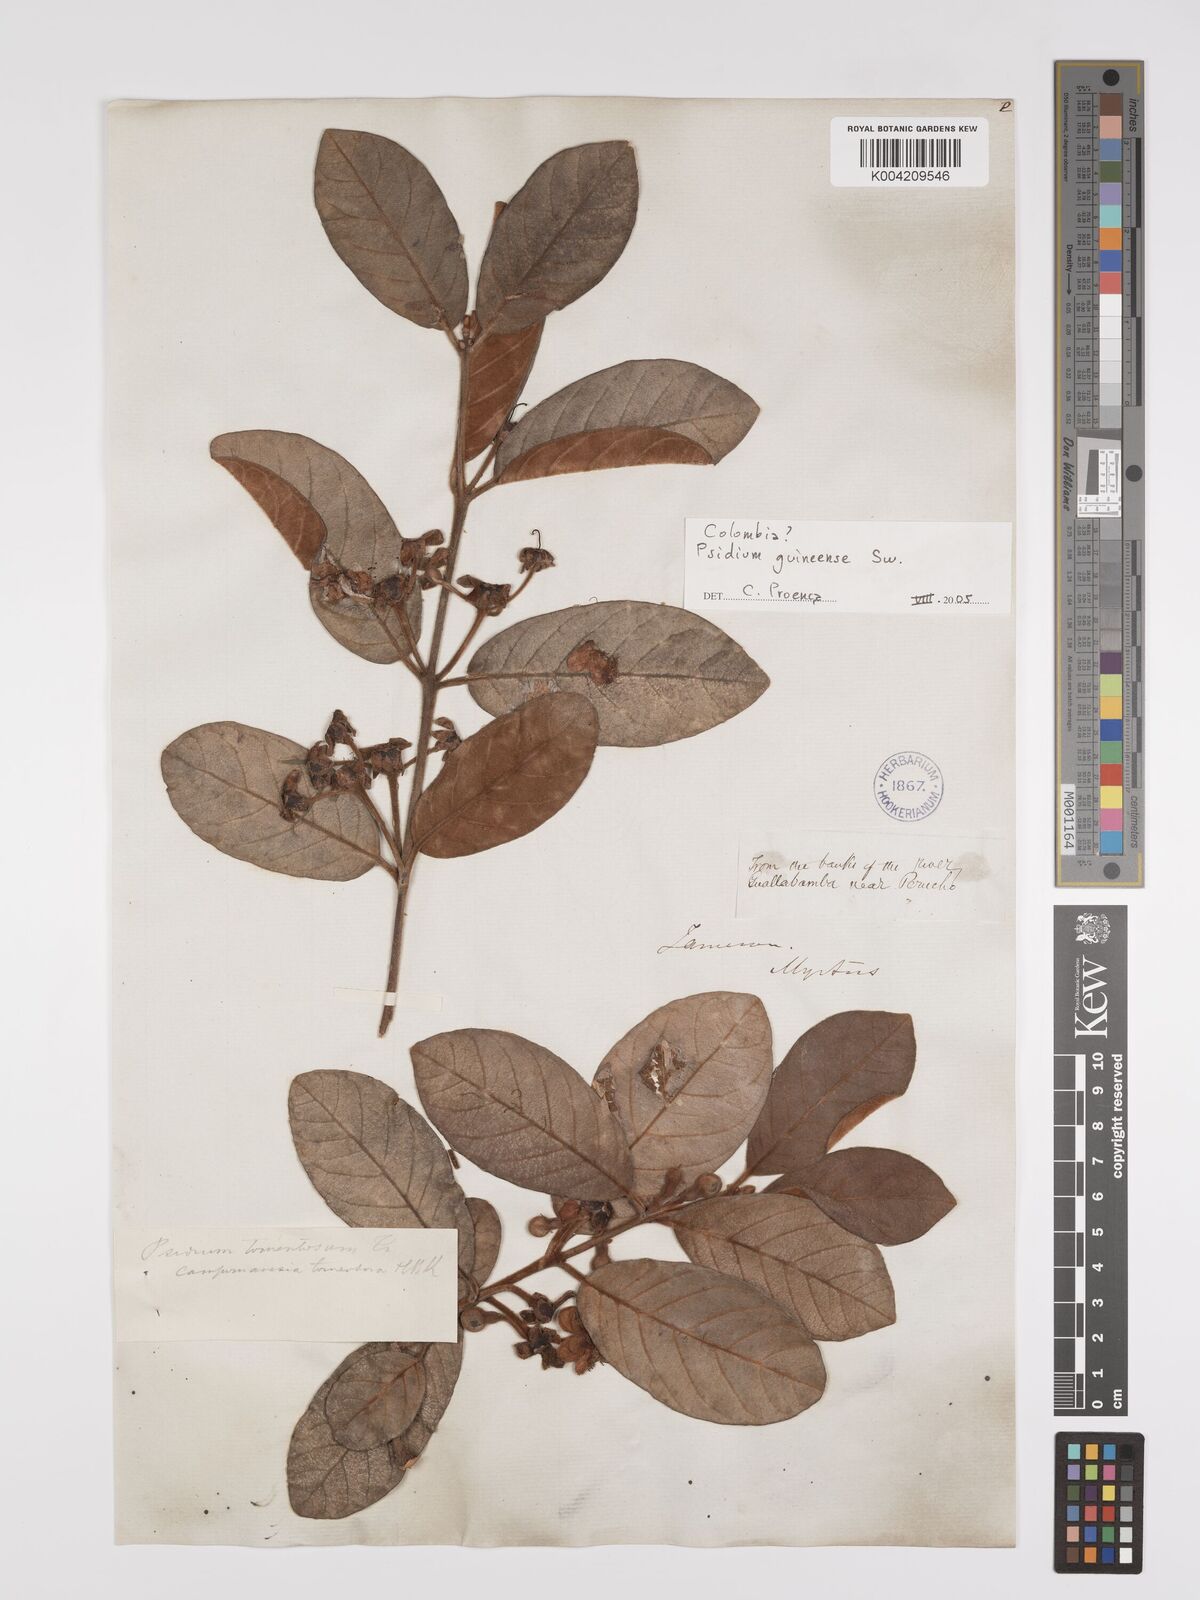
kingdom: Plantae
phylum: Tracheophyta
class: Magnoliopsida
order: Myrtales
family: Myrtaceae
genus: Psidium
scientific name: Psidium guineense
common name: Brazilian guava
